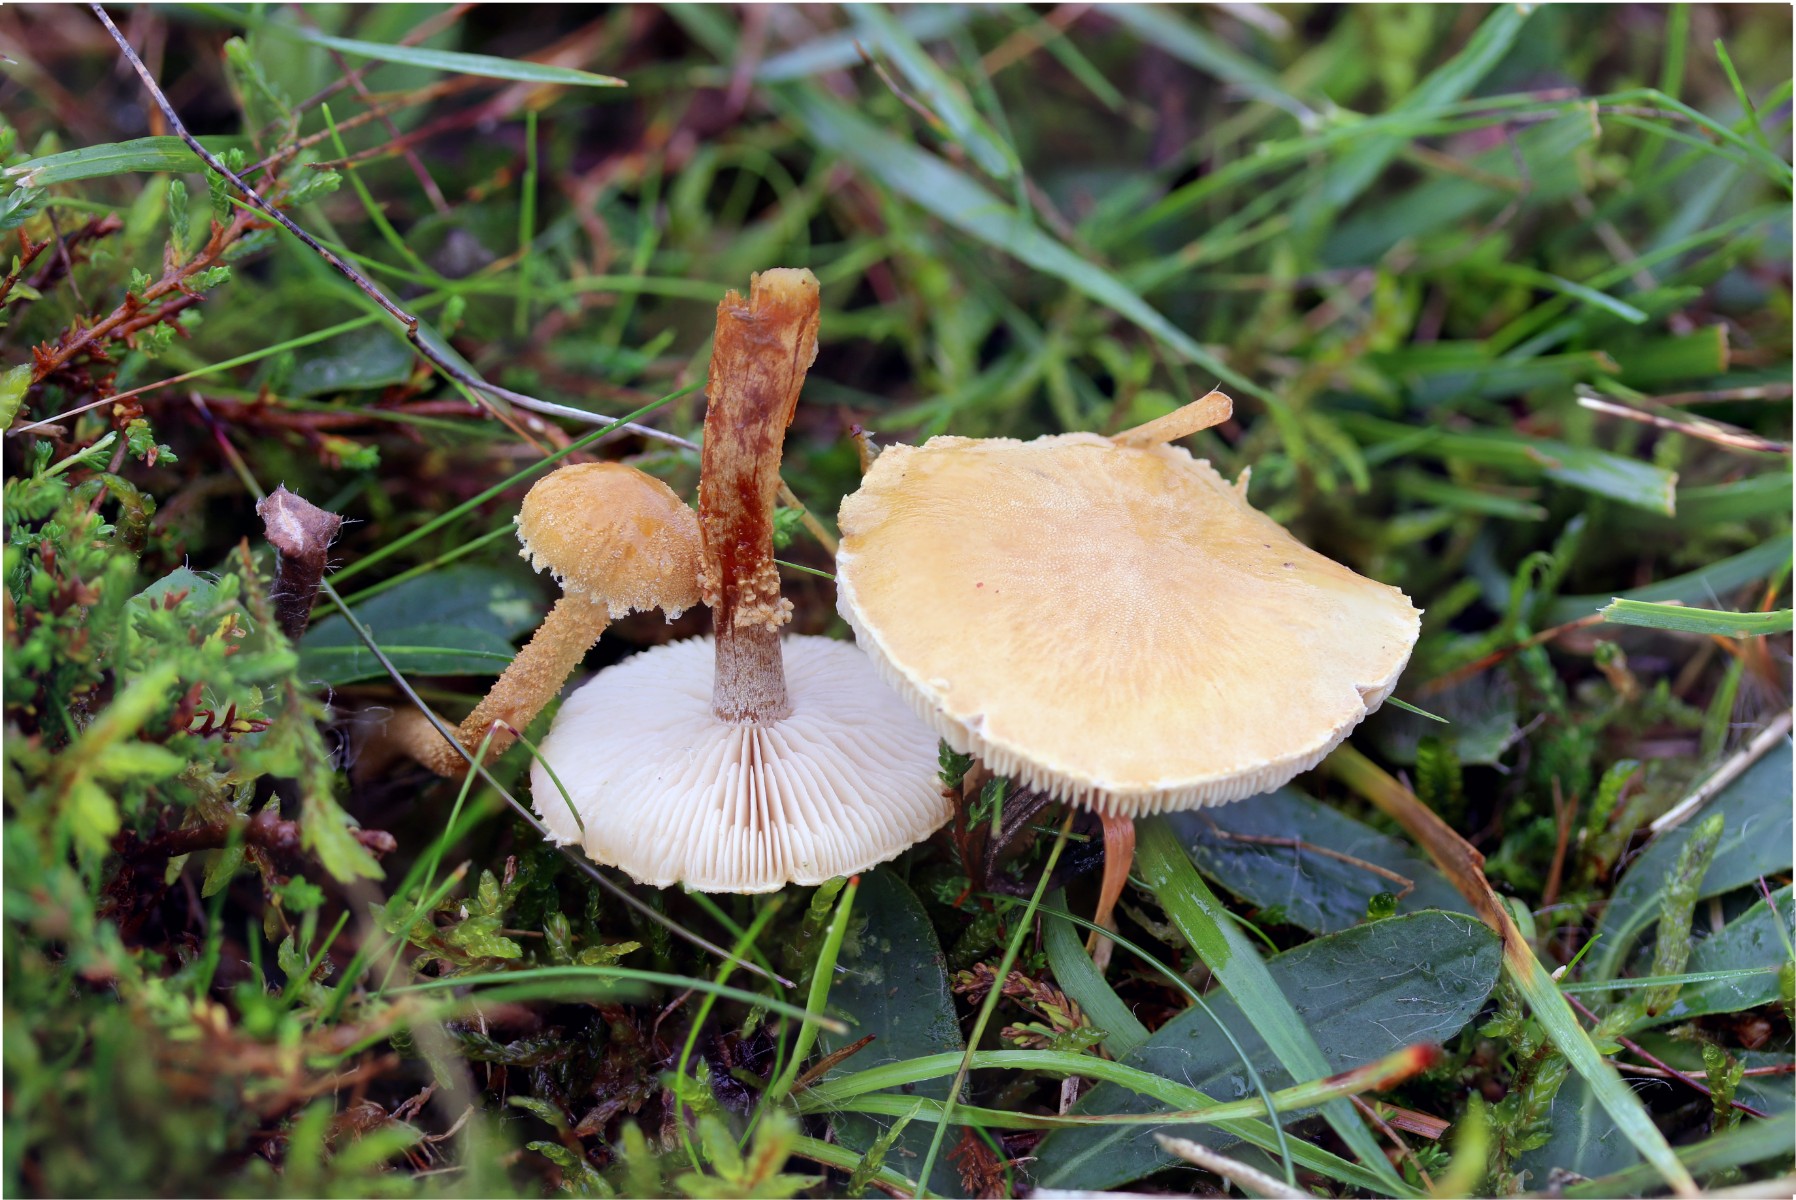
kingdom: Fungi
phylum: Basidiomycota
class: Agaricomycetes
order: Agaricales
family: Tricholomataceae
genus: Cystoderma
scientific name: Cystoderma amianthinum
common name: okkergul grynhat
